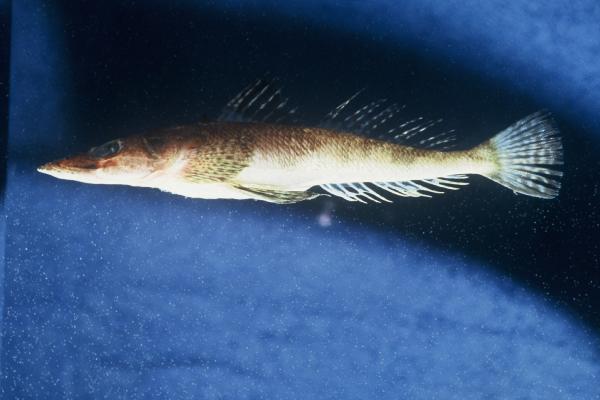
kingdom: Animalia
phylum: Chordata
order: Scorpaeniformes
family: Platycephalidae
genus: Sorsogona
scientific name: Sorsogona prionota
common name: Halfspined flathead
